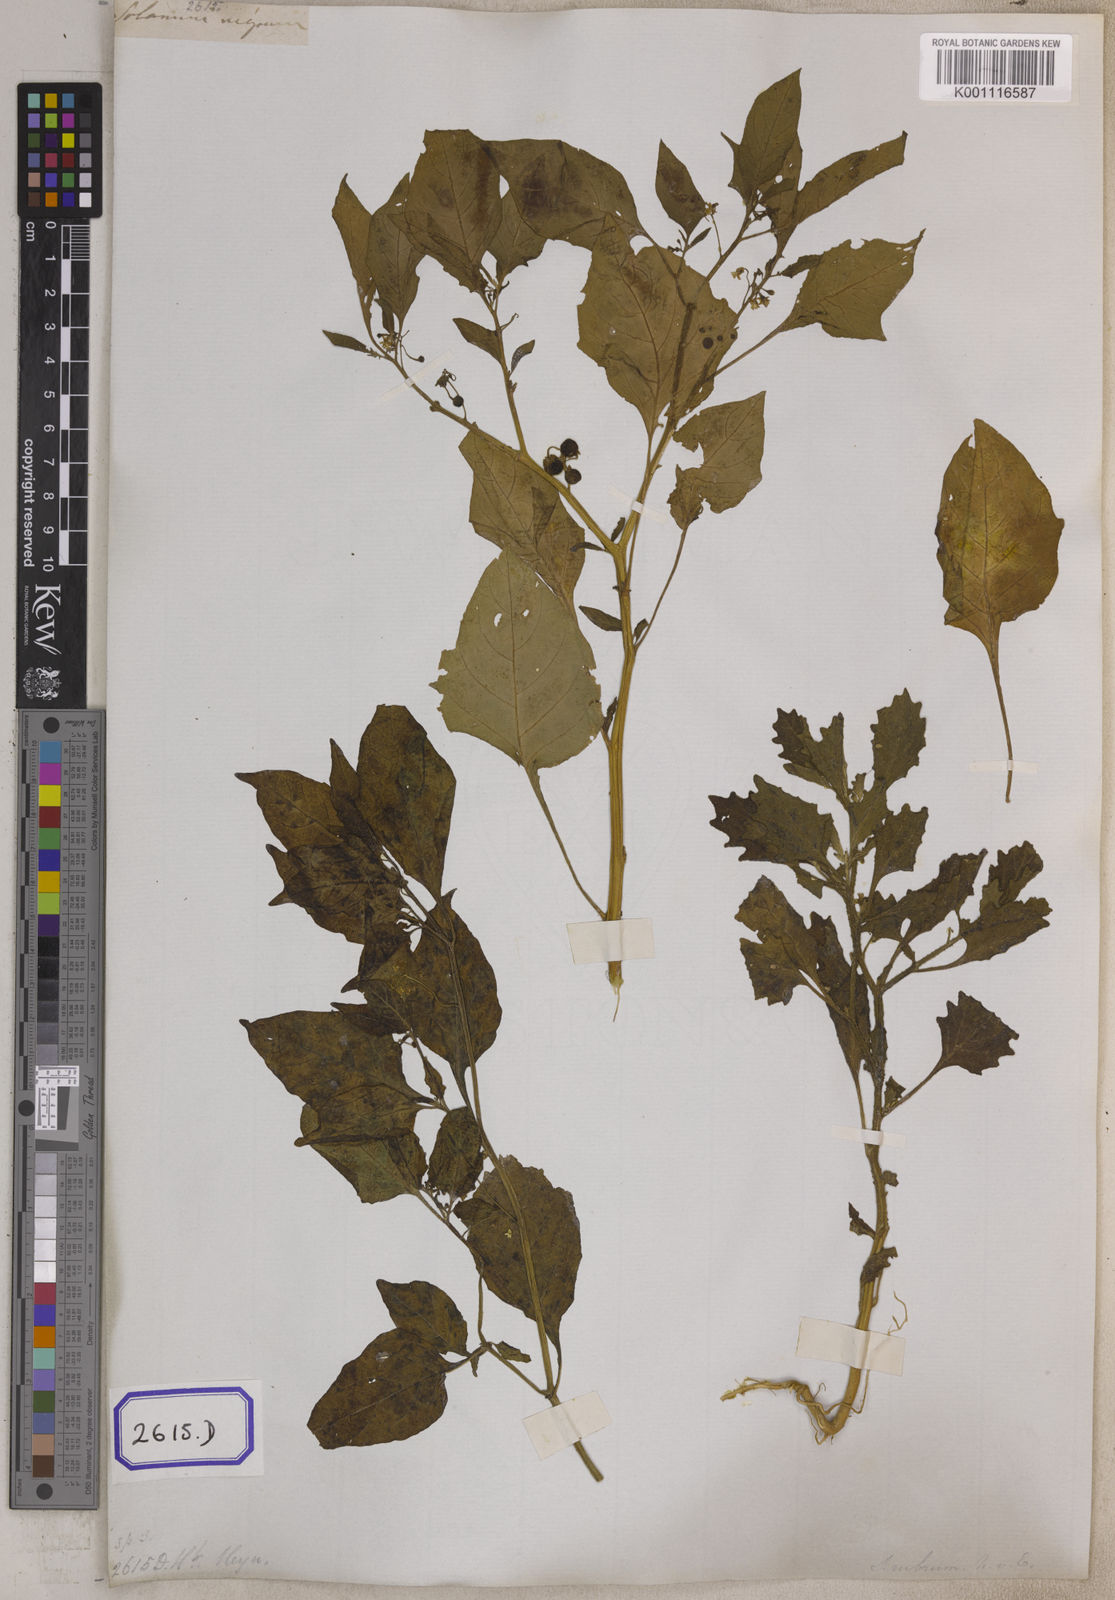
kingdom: Plantae
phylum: Tracheophyta
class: Magnoliopsida
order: Solanales
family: Solanaceae
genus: Solanum
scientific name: Solanum nigrum
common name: Black nightshade
